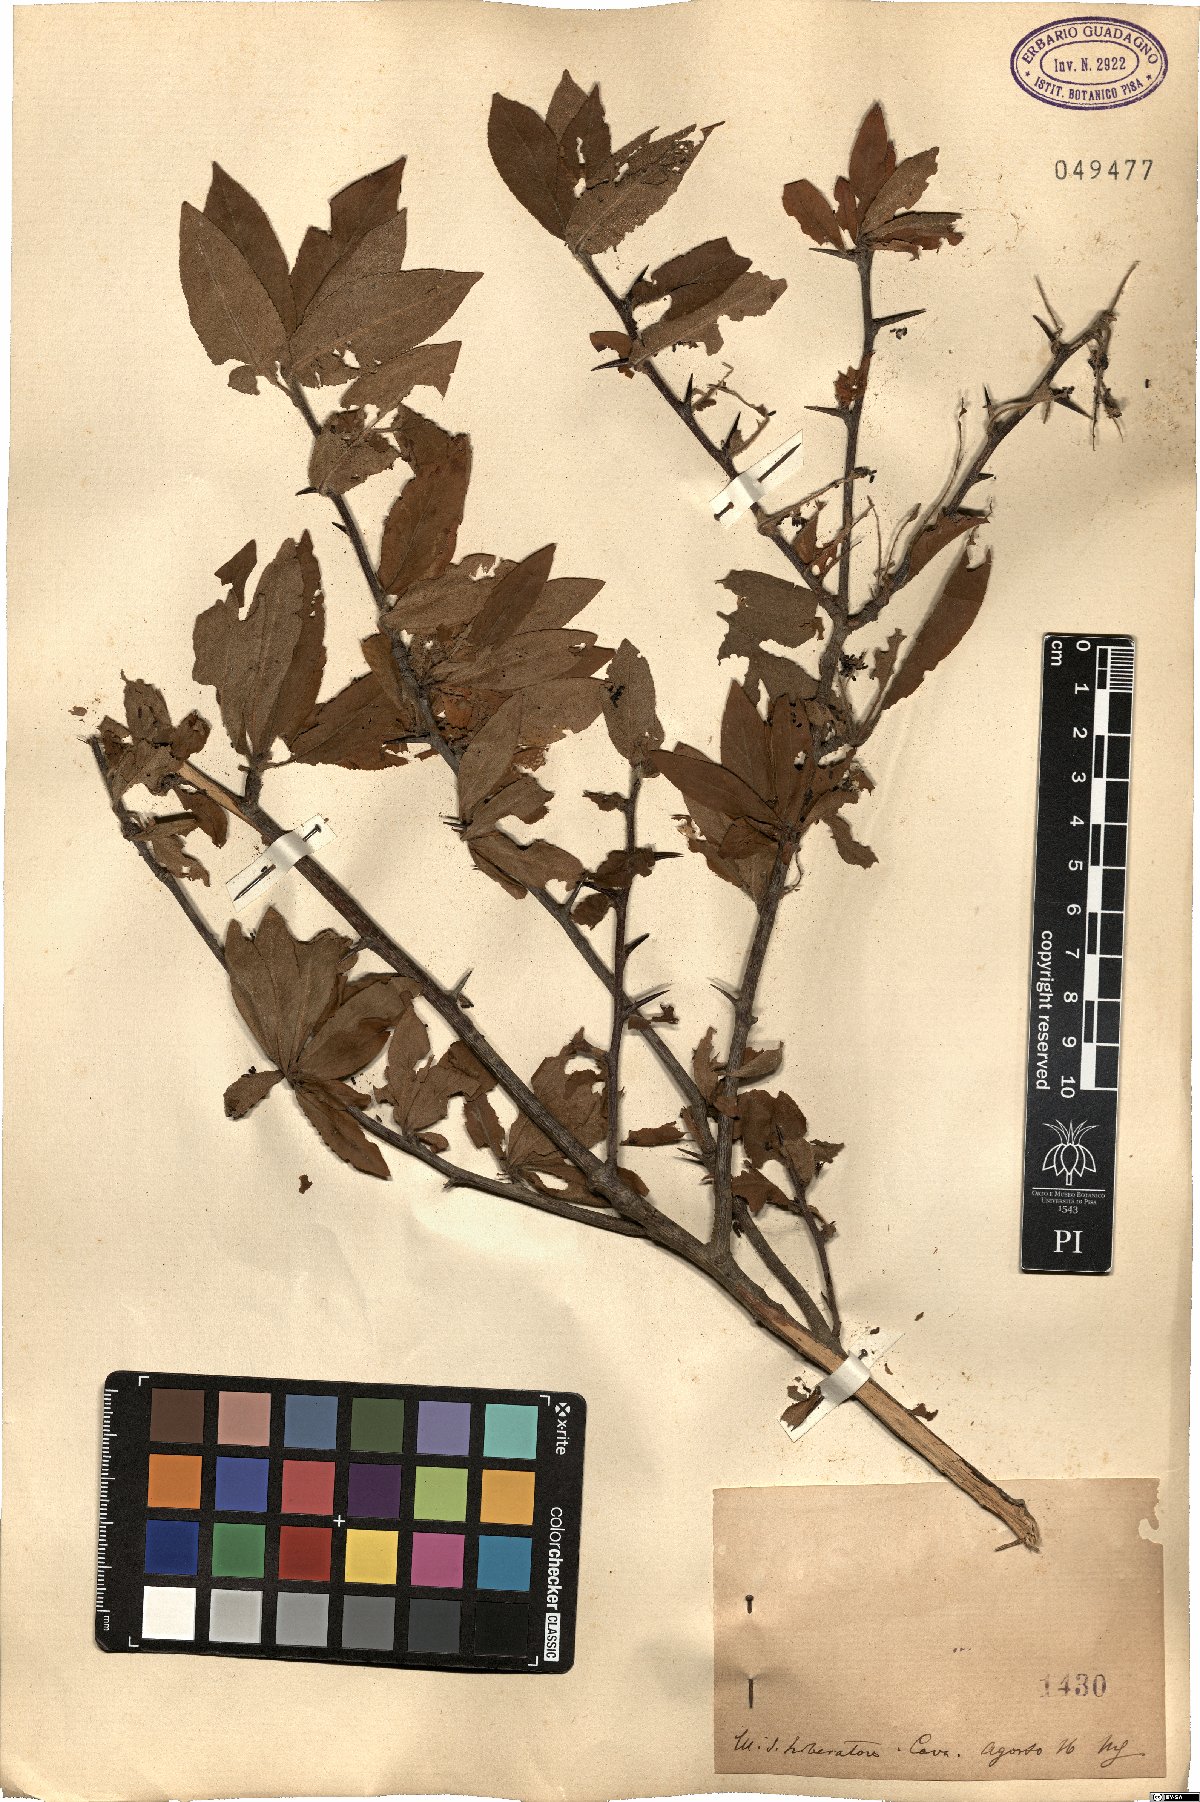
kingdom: Plantae
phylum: Tracheophyta
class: Magnoliopsida
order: Rosales
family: Rosaceae
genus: Mespilus
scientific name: Mespilus
